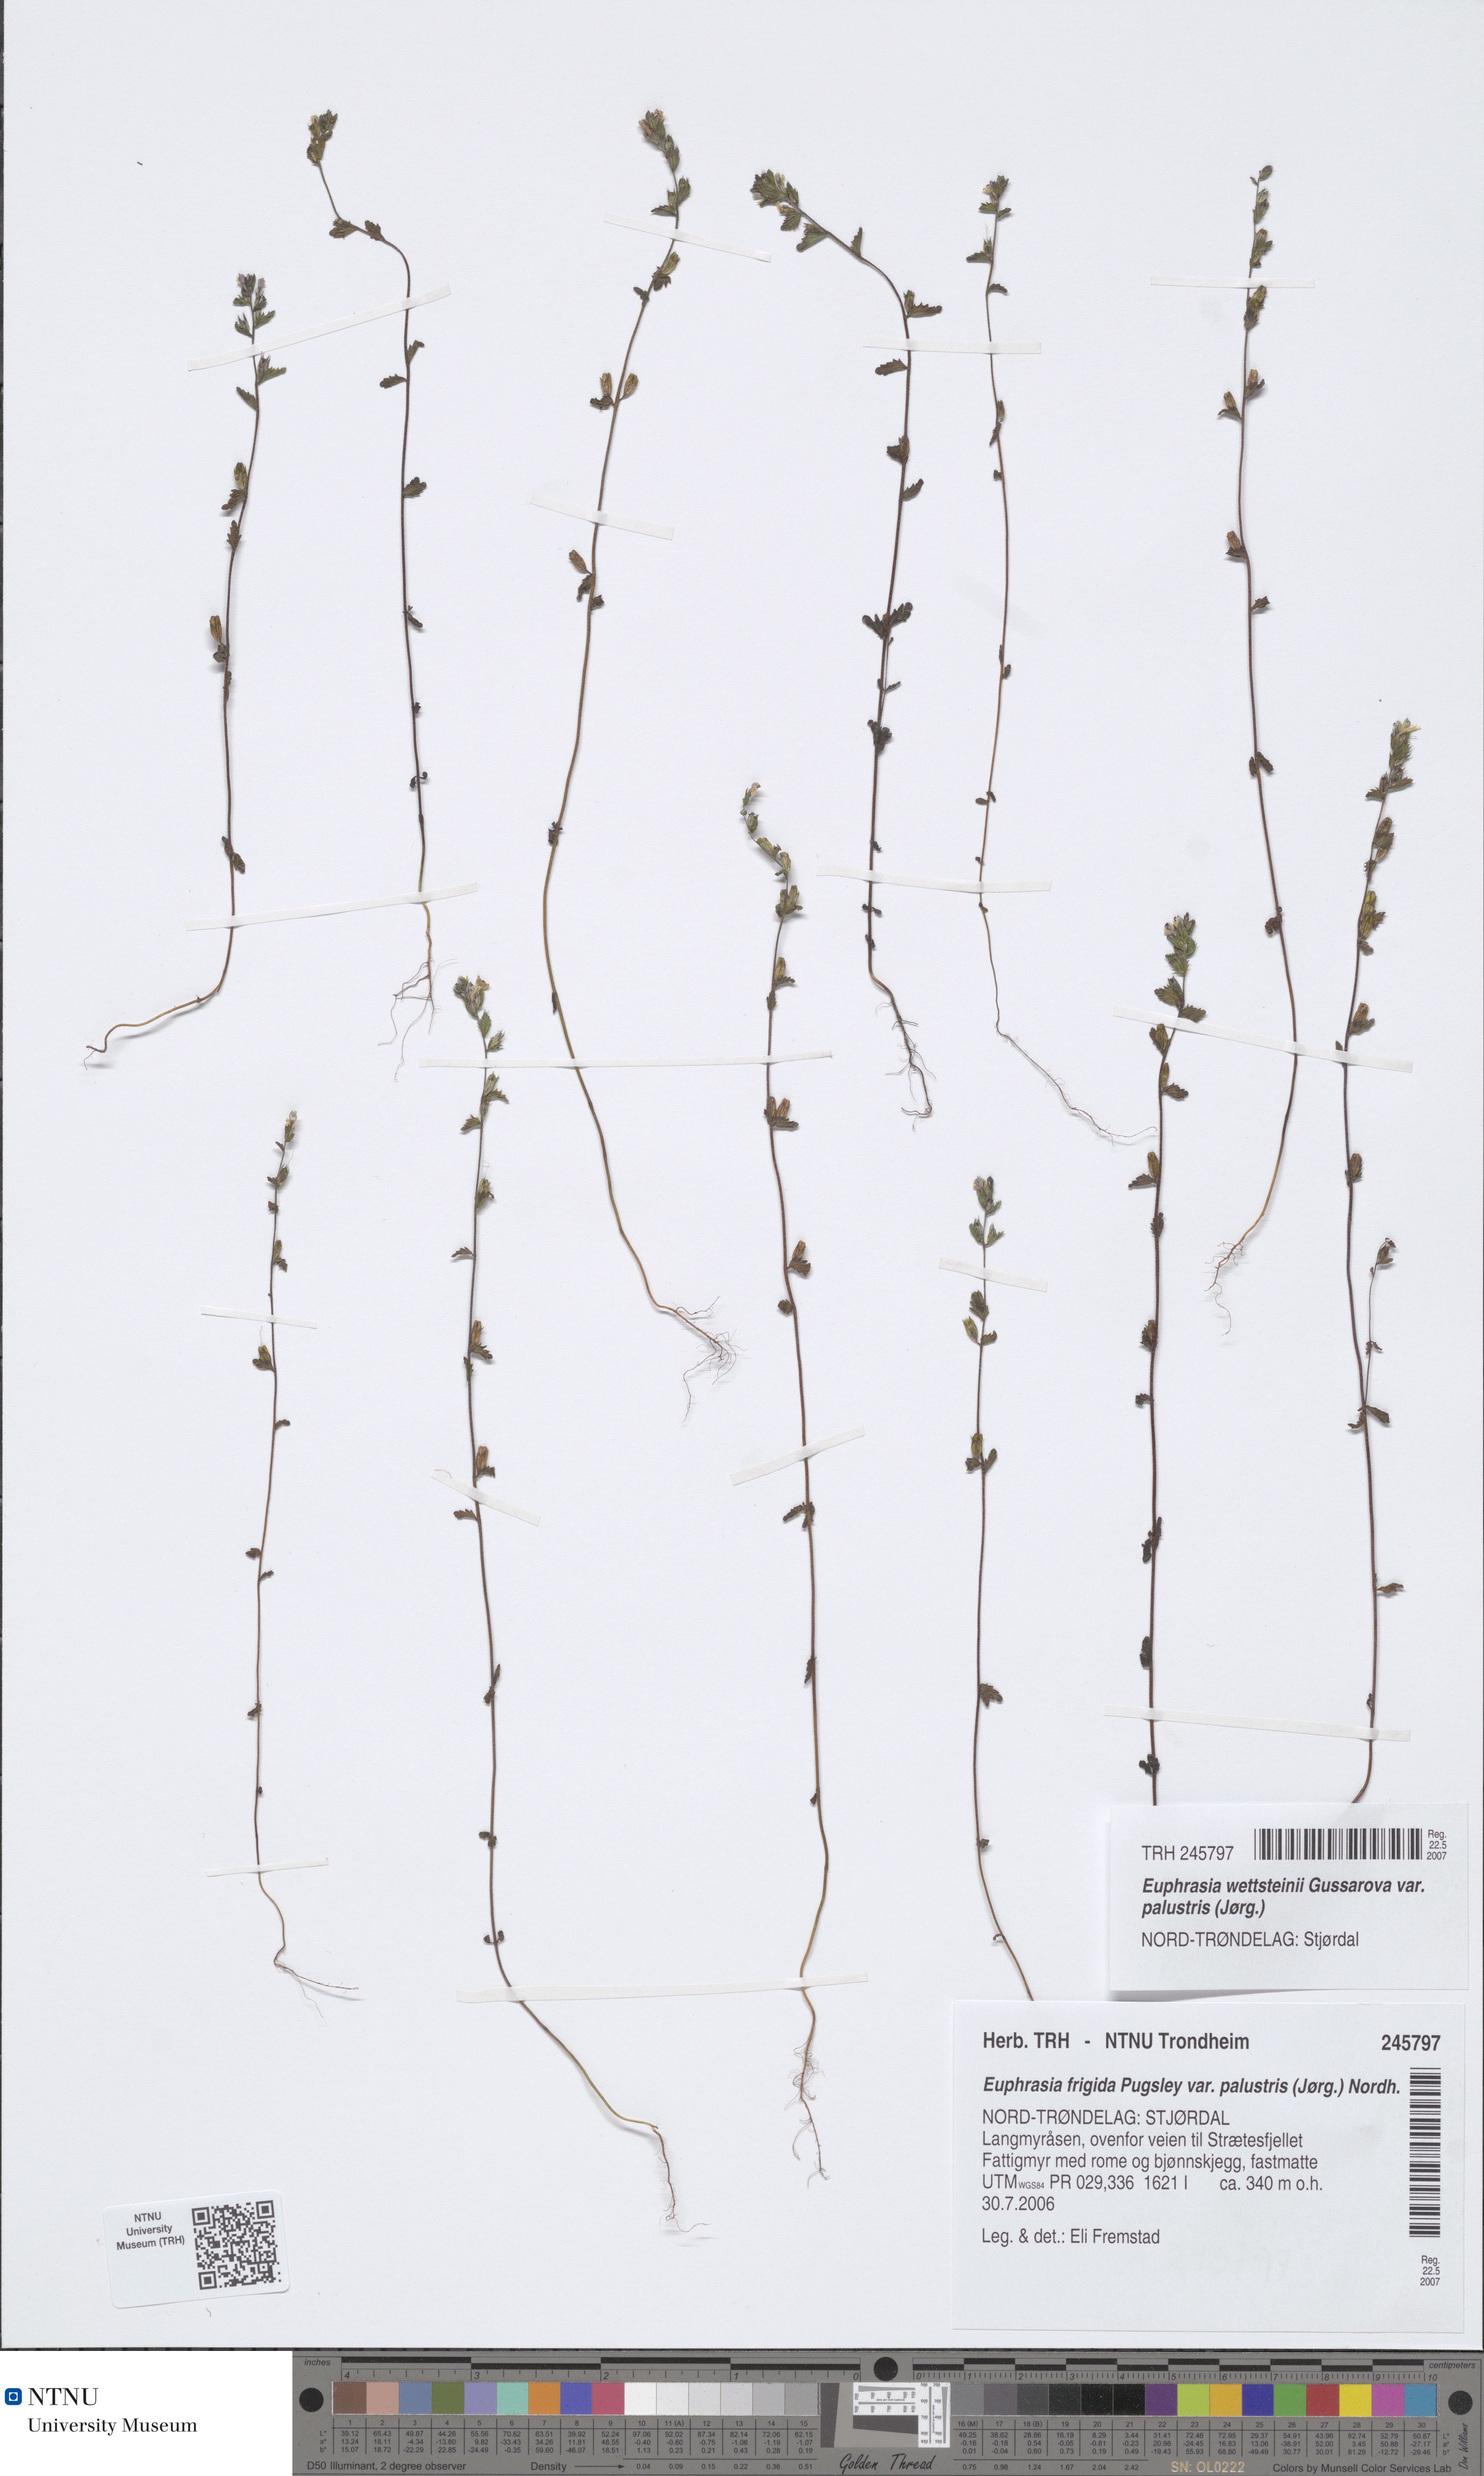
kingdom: Plantae
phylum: Tracheophyta
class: Magnoliopsida
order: Lamiales
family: Orobanchaceae
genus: Euphrasia
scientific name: Euphrasia wettsteinii
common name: Wettstein's eyebright
